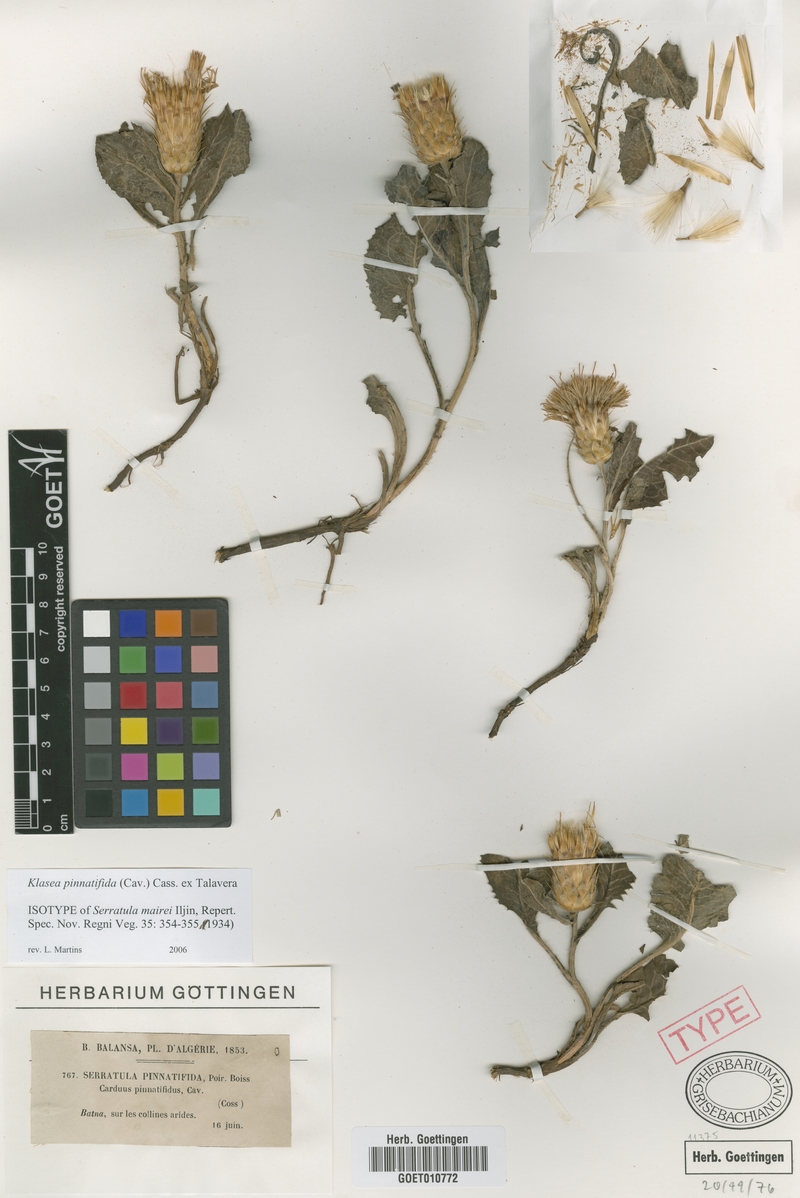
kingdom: Plantae
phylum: Tracheophyta
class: Magnoliopsida
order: Asterales
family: Asteraceae
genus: Klasea
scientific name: Klasea pinnatifida
